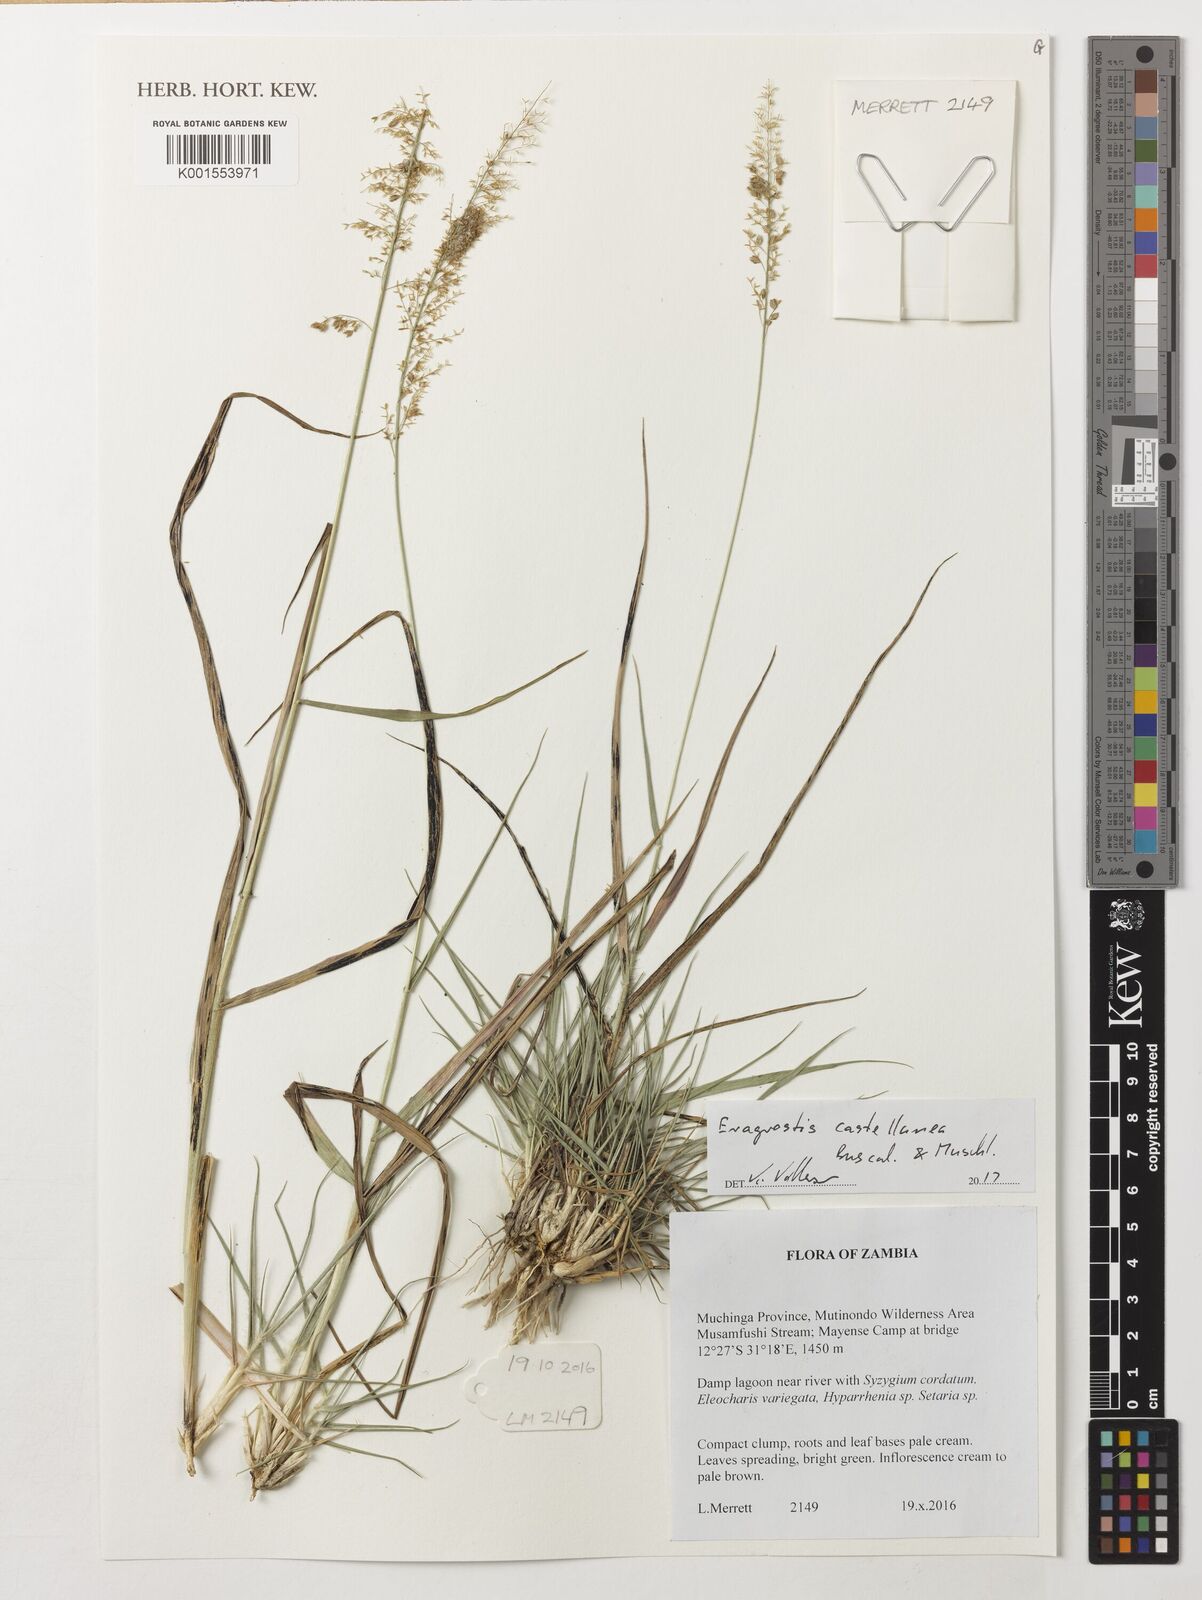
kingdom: Plantae
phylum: Tracheophyta
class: Liliopsida
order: Poales
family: Poaceae
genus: Eragrostis
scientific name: Eragrostis castellaneana
